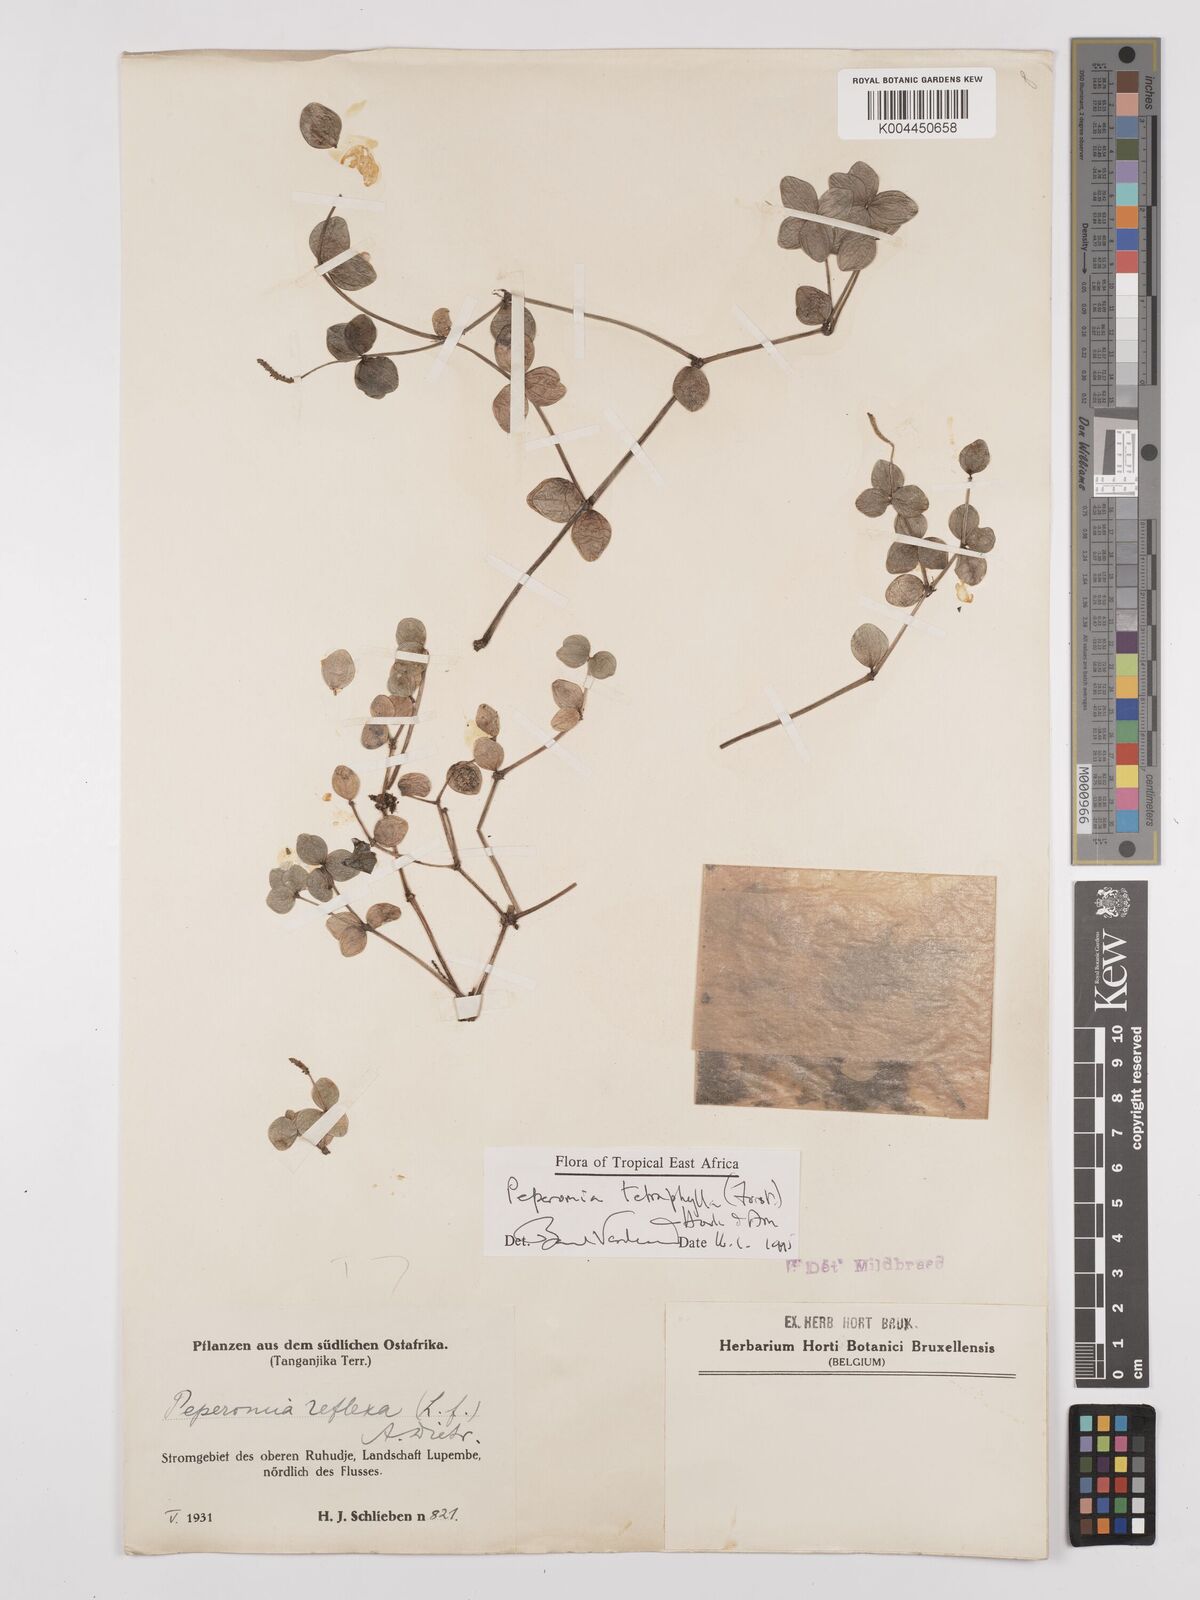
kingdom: Plantae
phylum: Tracheophyta
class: Magnoliopsida
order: Piperales
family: Piperaceae
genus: Peperomia
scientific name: Peperomia tetraphylla
